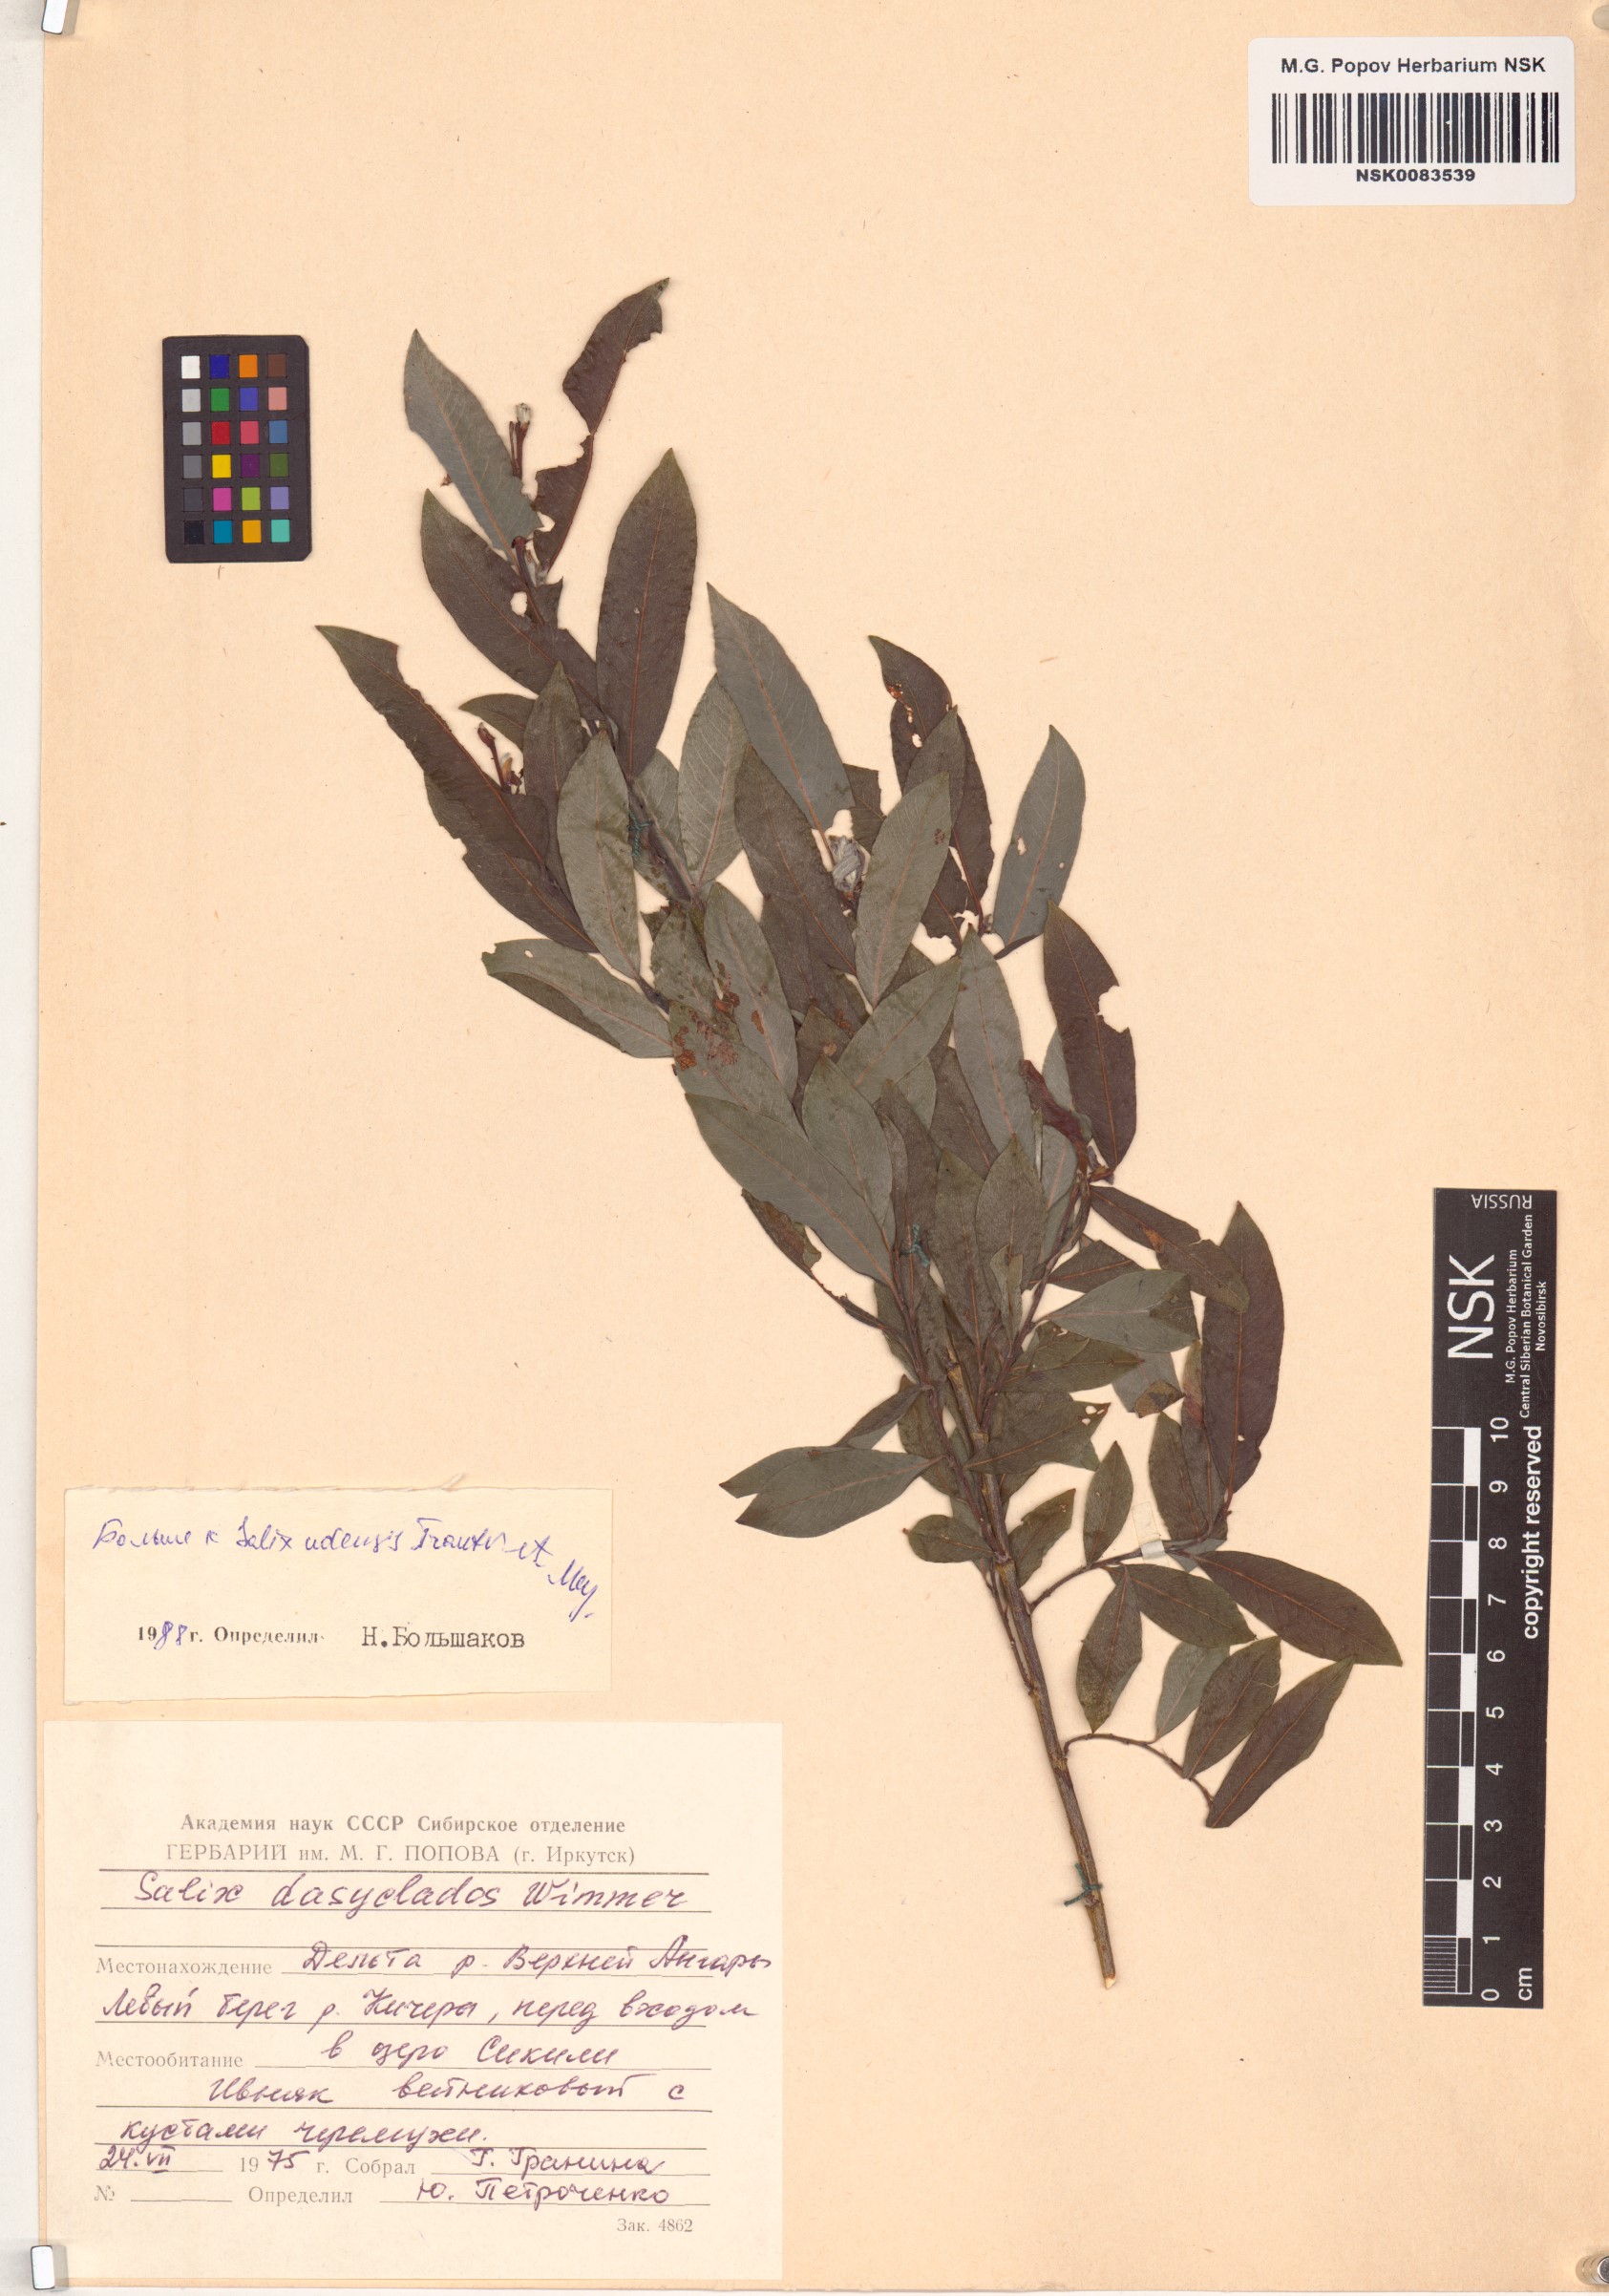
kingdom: Plantae
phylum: Tracheophyta
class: Magnoliopsida
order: Malpighiales
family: Salicaceae
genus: Salix
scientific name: Salix udensis
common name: Sachalin willow
